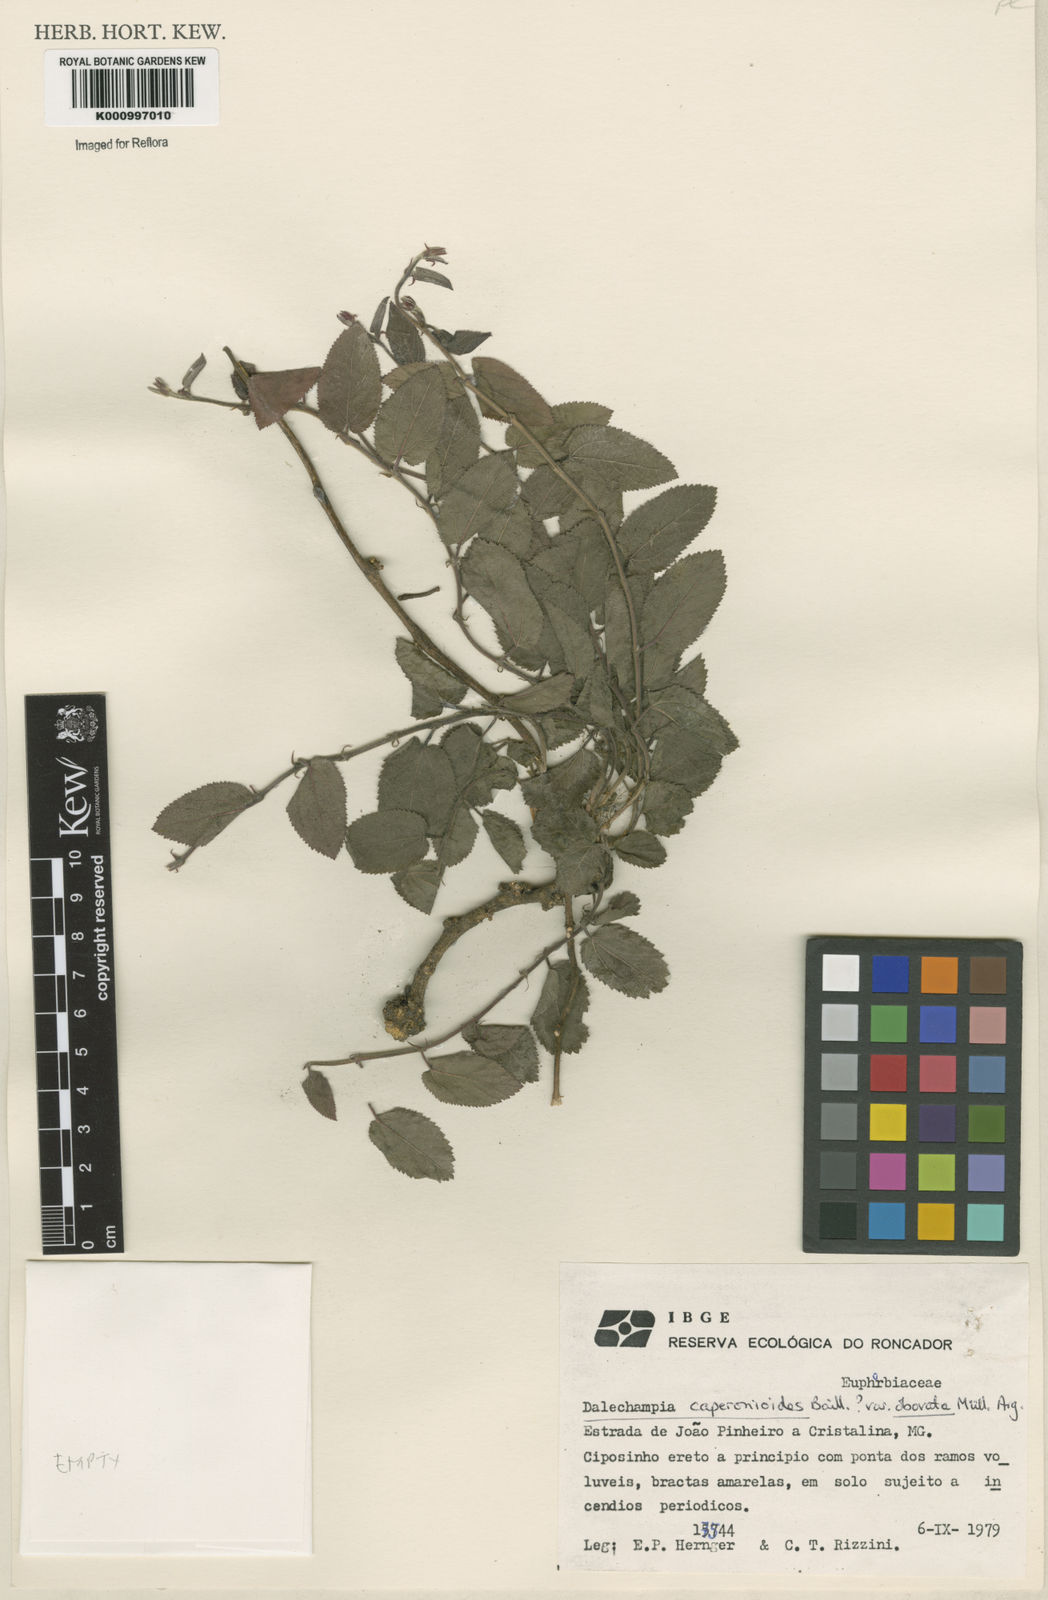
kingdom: Plantae
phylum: Tracheophyta
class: Magnoliopsida
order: Malpighiales
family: Euphorbiaceae
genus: Dalechampia
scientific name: Dalechampia caperonioides
